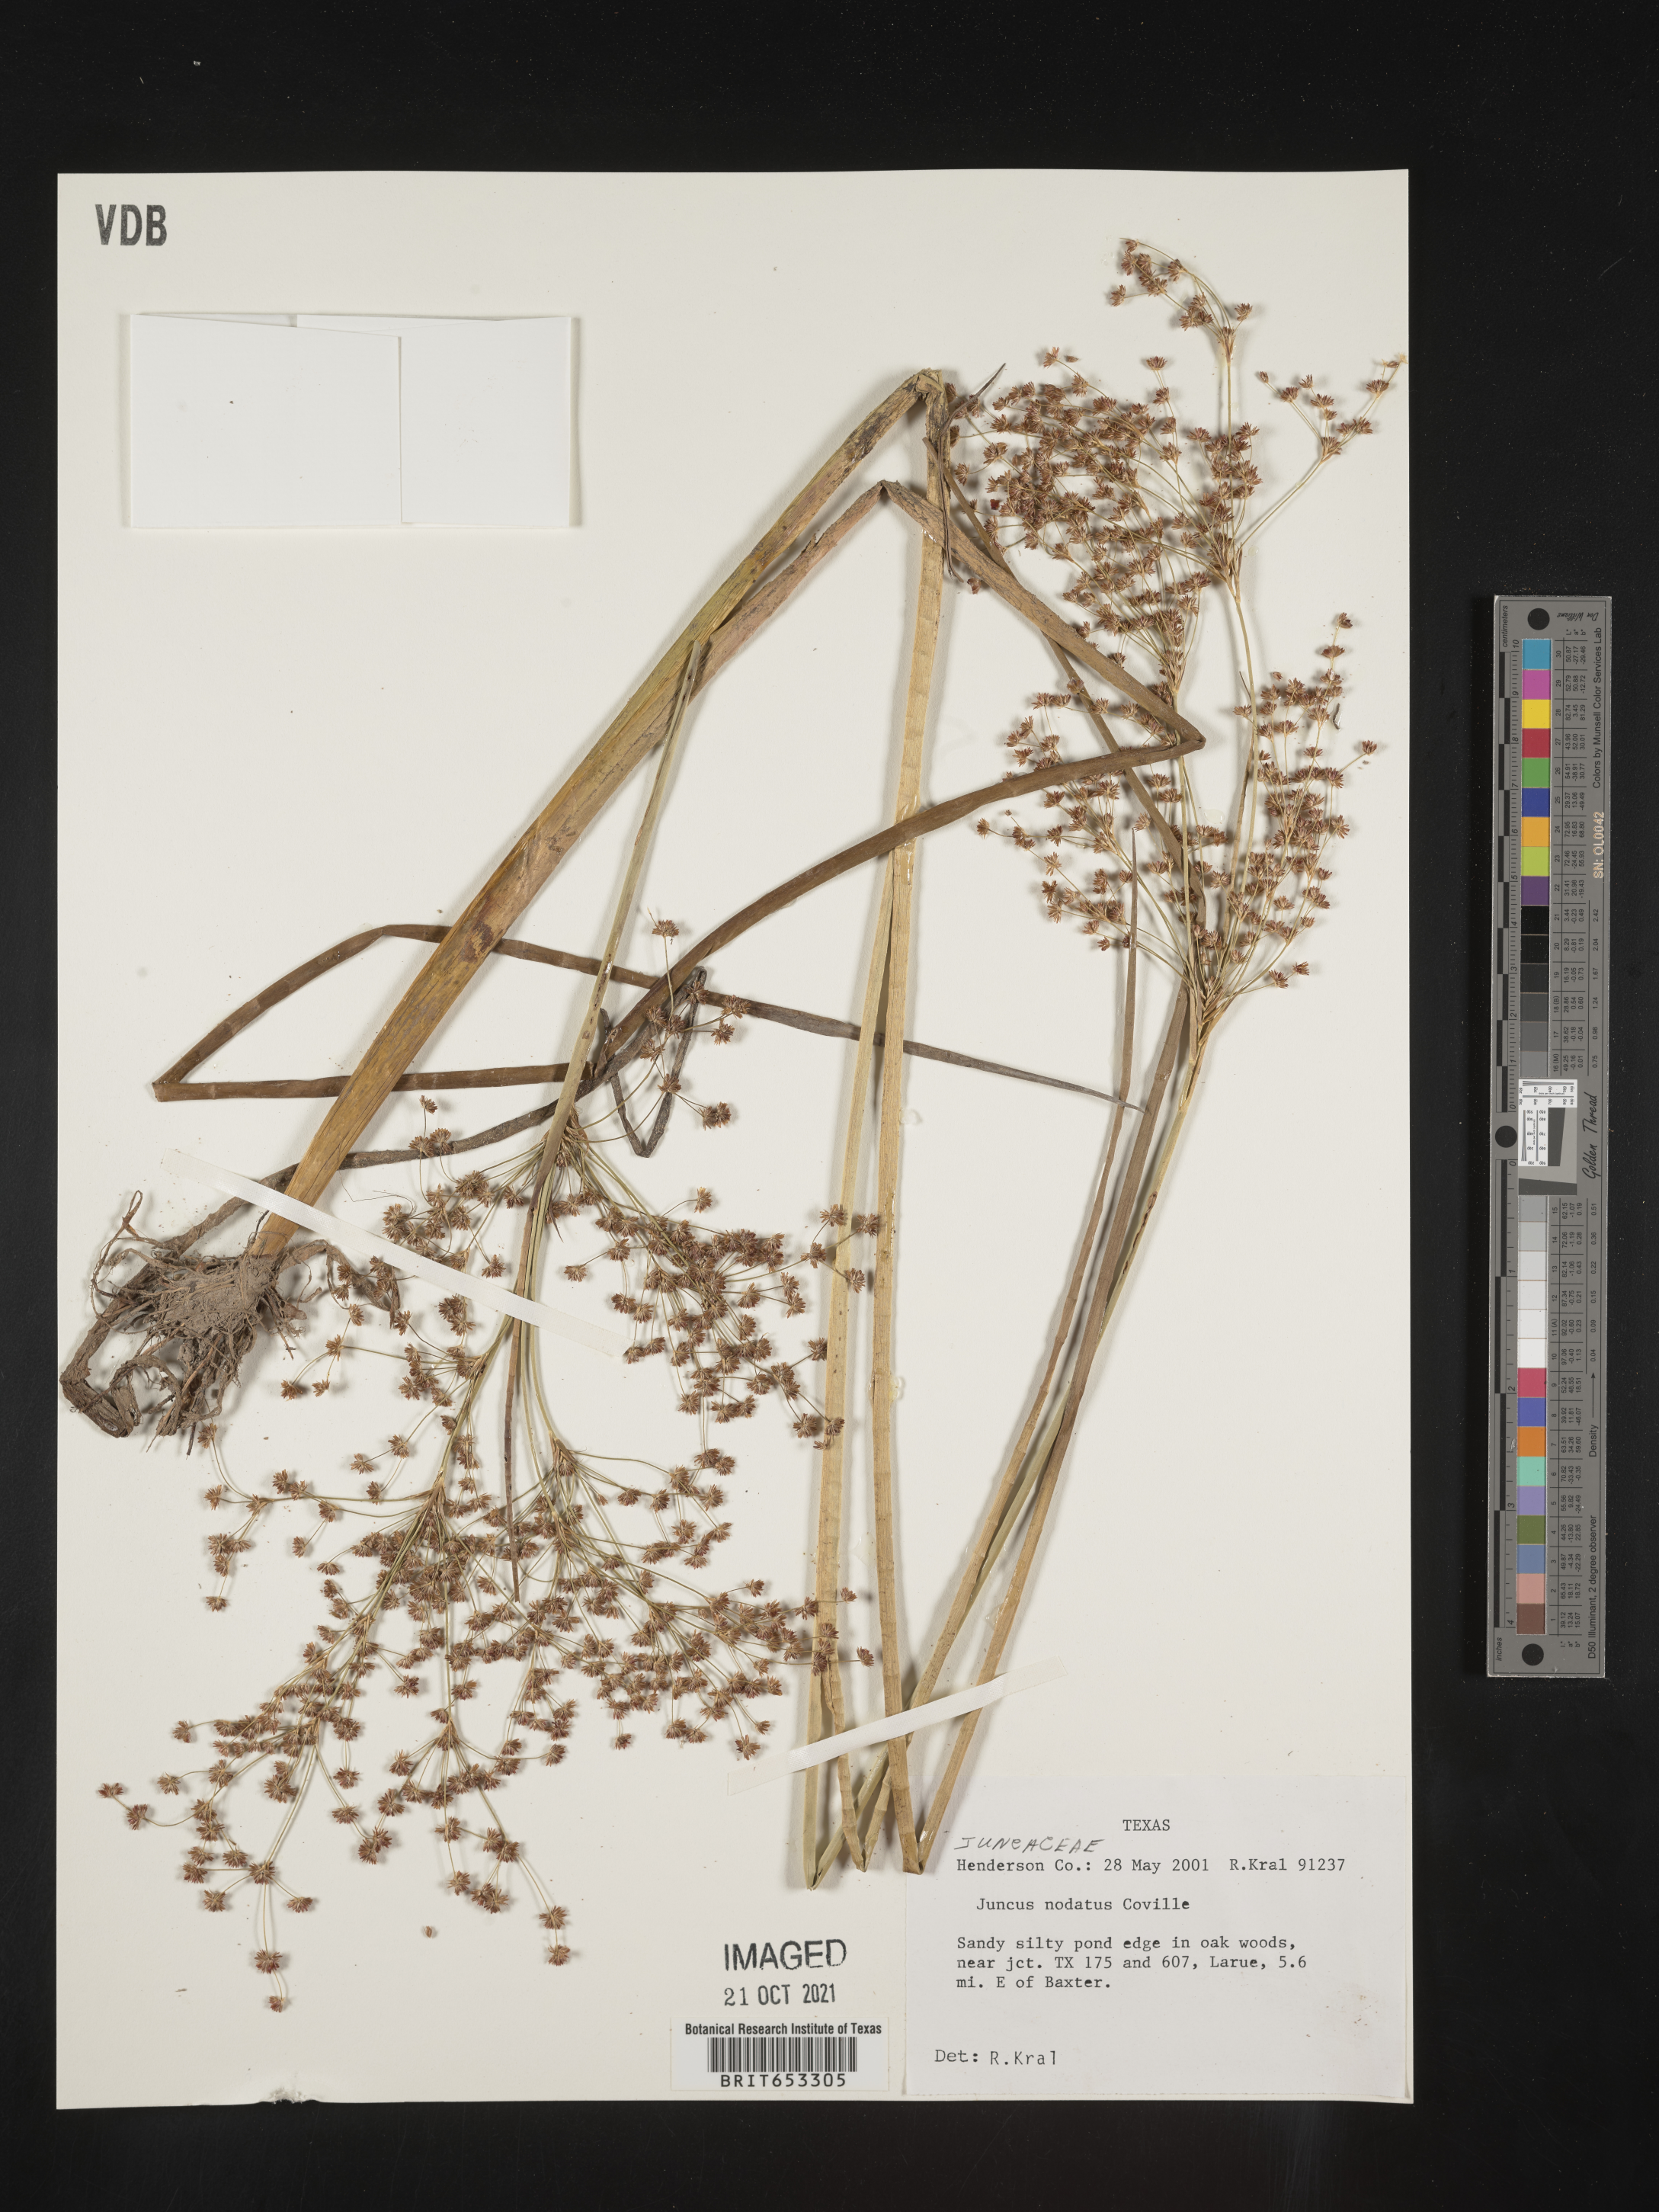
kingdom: Plantae
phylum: Tracheophyta
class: Liliopsida
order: Poales
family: Juncaceae
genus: Juncus
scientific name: Juncus nodatus
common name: Stout rush
